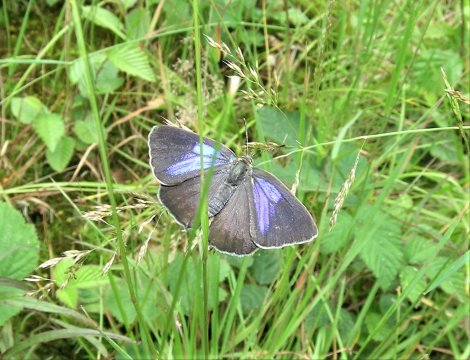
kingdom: Animalia
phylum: Arthropoda
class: Insecta
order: Lepidoptera
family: Lycaenidae
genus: Quercusia
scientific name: Quercusia quercus
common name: Purple hairstreak
